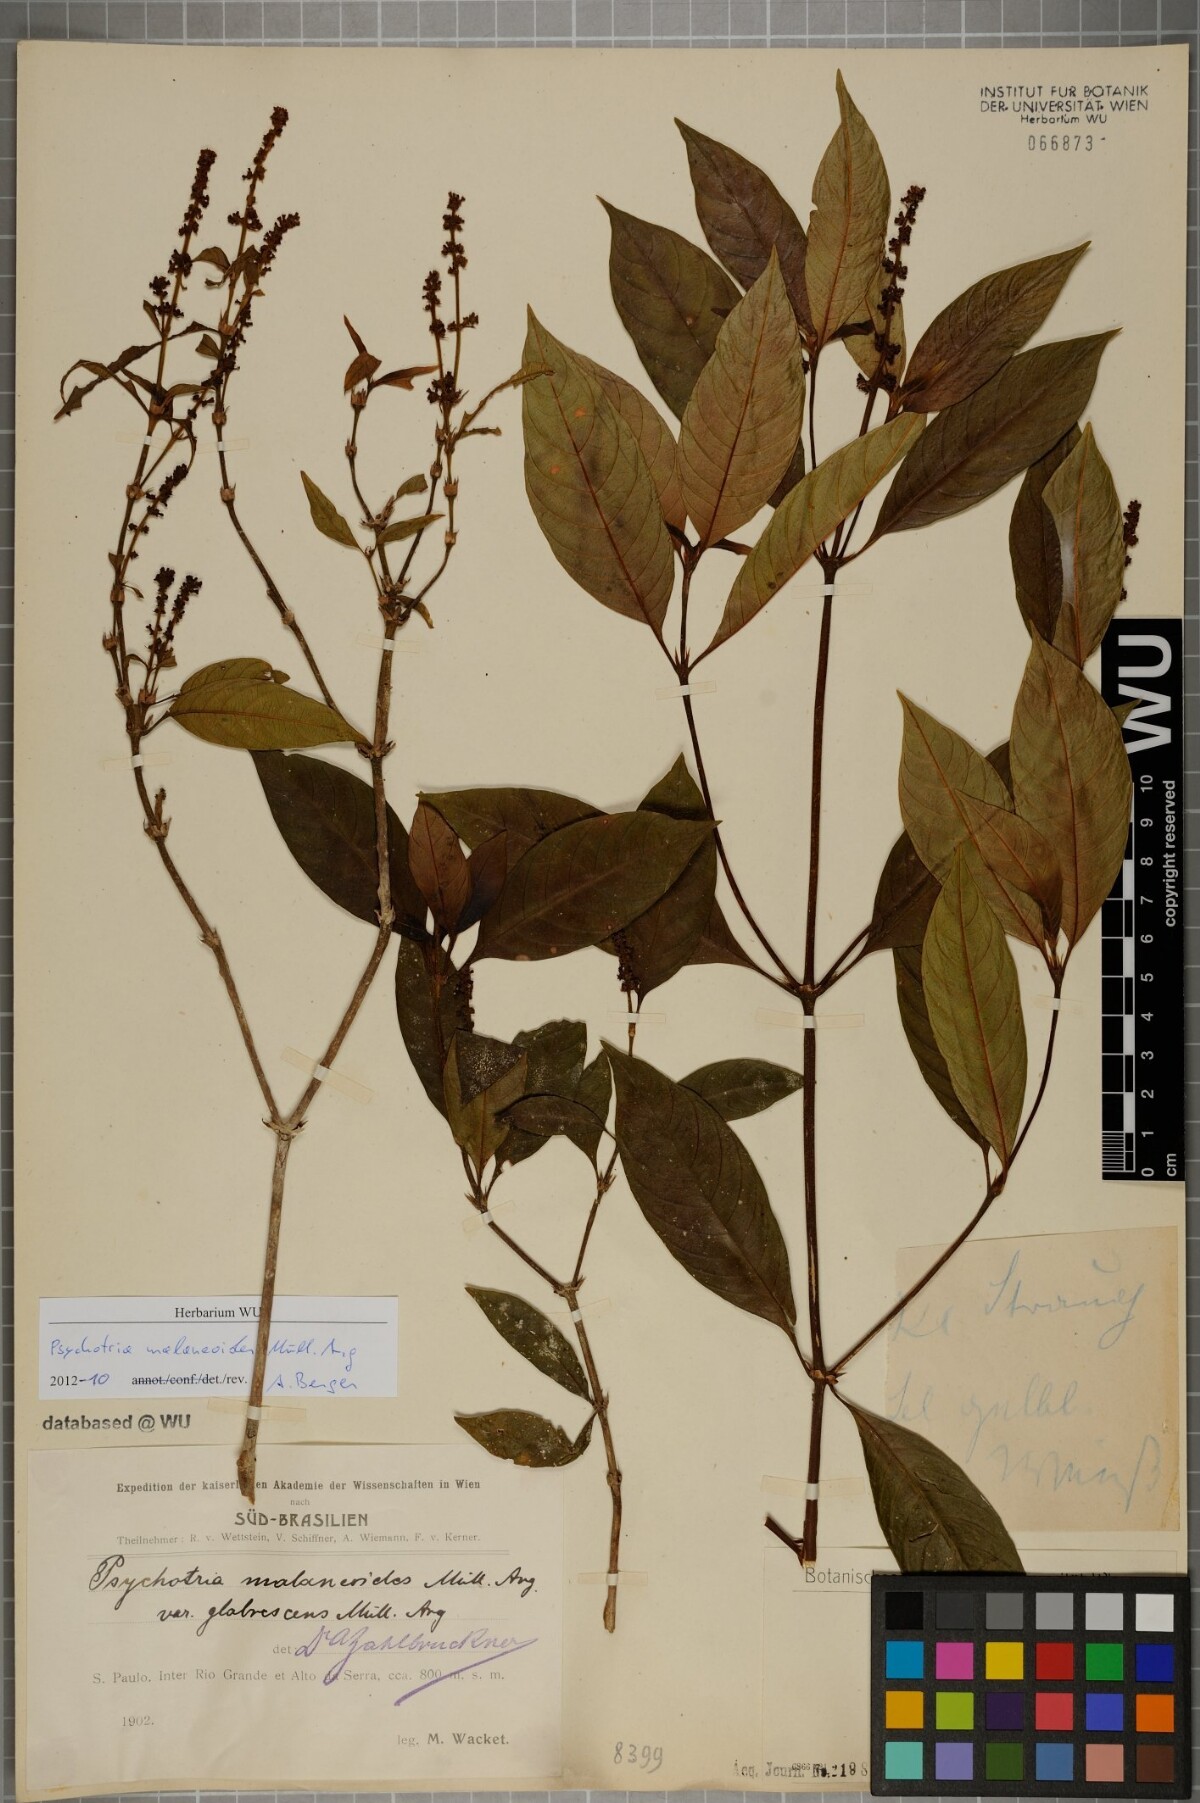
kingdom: Plantae
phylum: Tracheophyta
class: Magnoliopsida
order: Gentianales
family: Rubiaceae
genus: Palicourea
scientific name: Palicourea malaneoides
